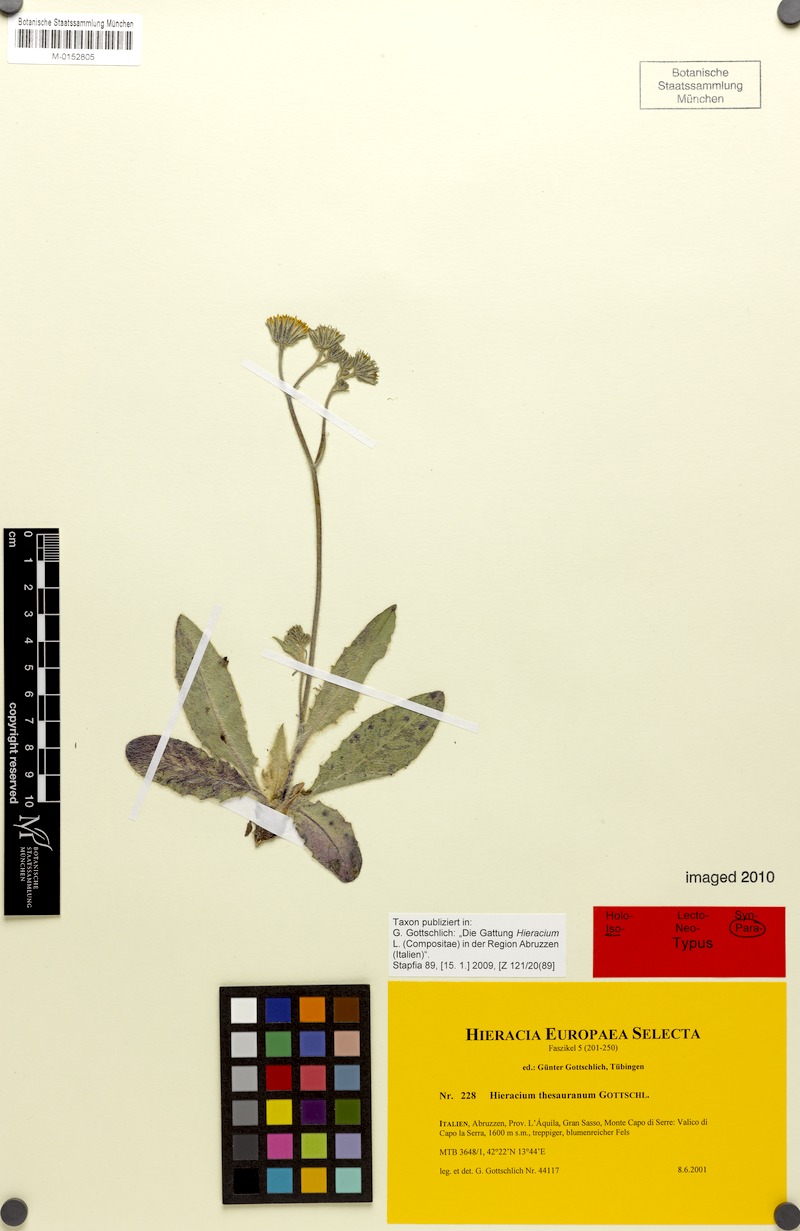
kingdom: Plantae
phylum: Tracheophyta
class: Magnoliopsida
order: Asterales
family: Asteraceae
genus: Hieracium
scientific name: Hieracium thesauranum
